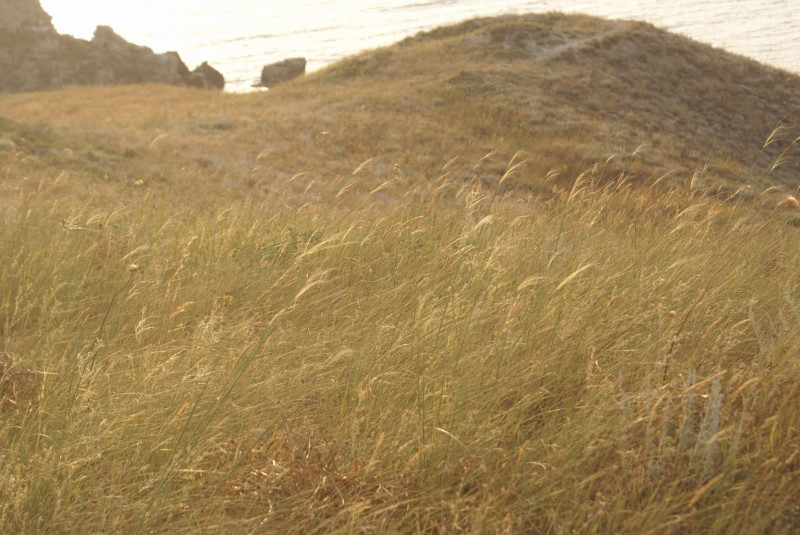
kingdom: Plantae
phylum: Tracheophyta
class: Liliopsida
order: Poales
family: Poaceae
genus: Stipa
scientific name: Stipa
